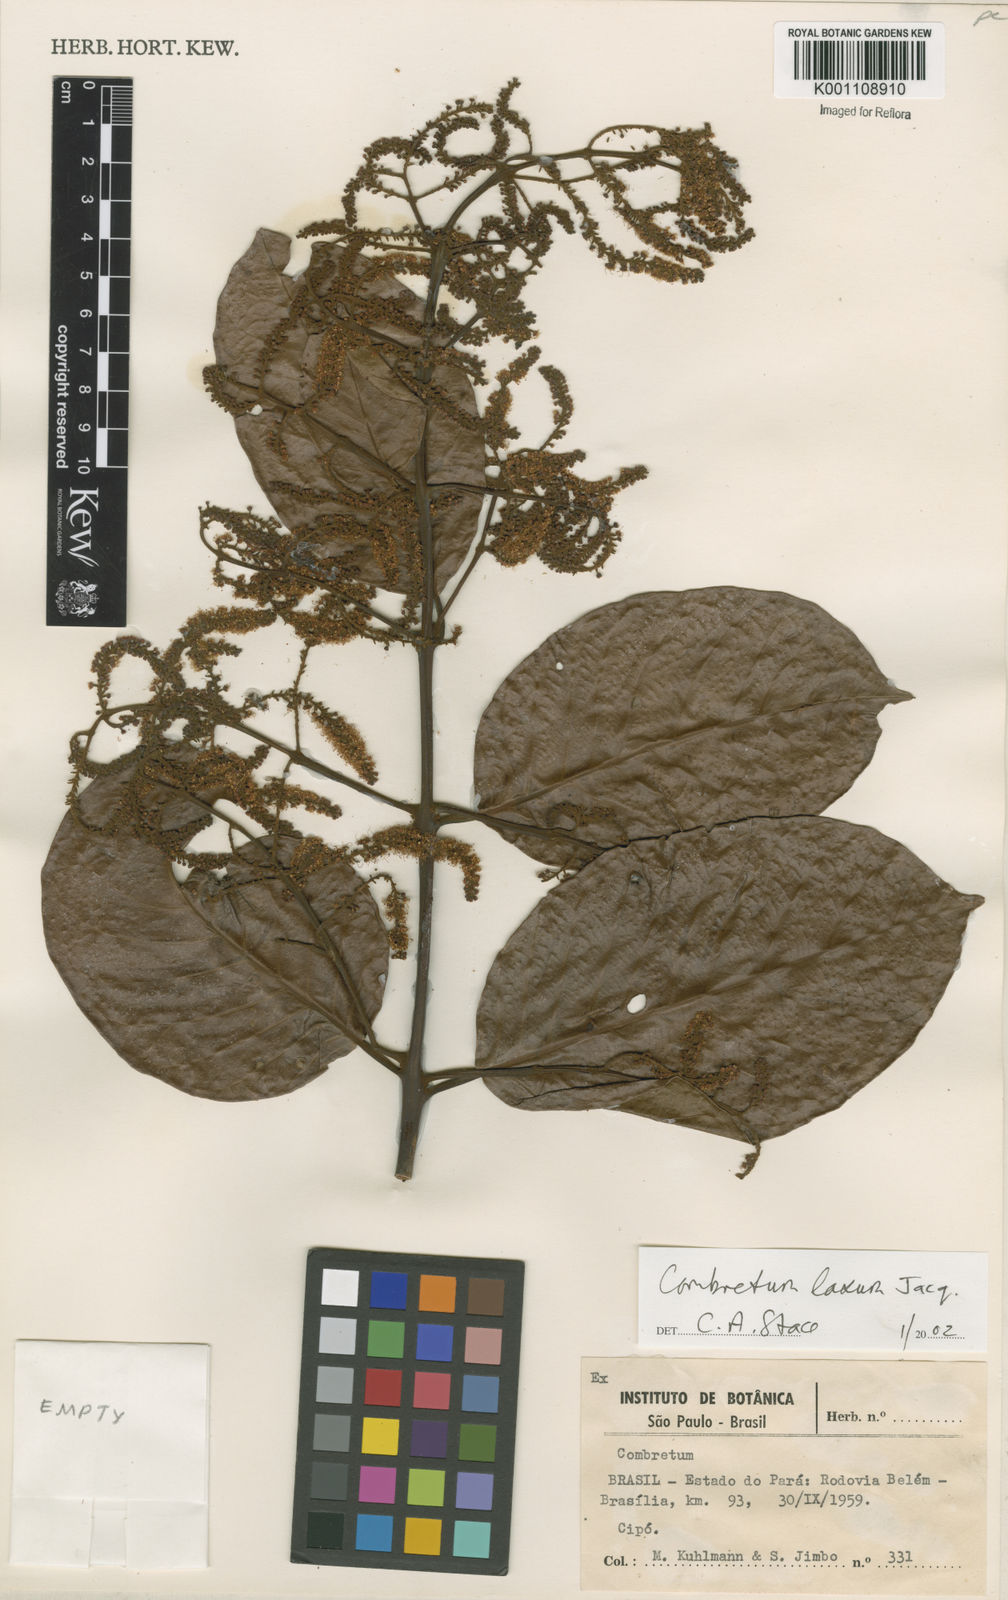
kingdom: Plantae
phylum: Tracheophyta
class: Magnoliopsida
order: Myrtales
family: Combretaceae
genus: Combretum
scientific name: Combretum laxum
